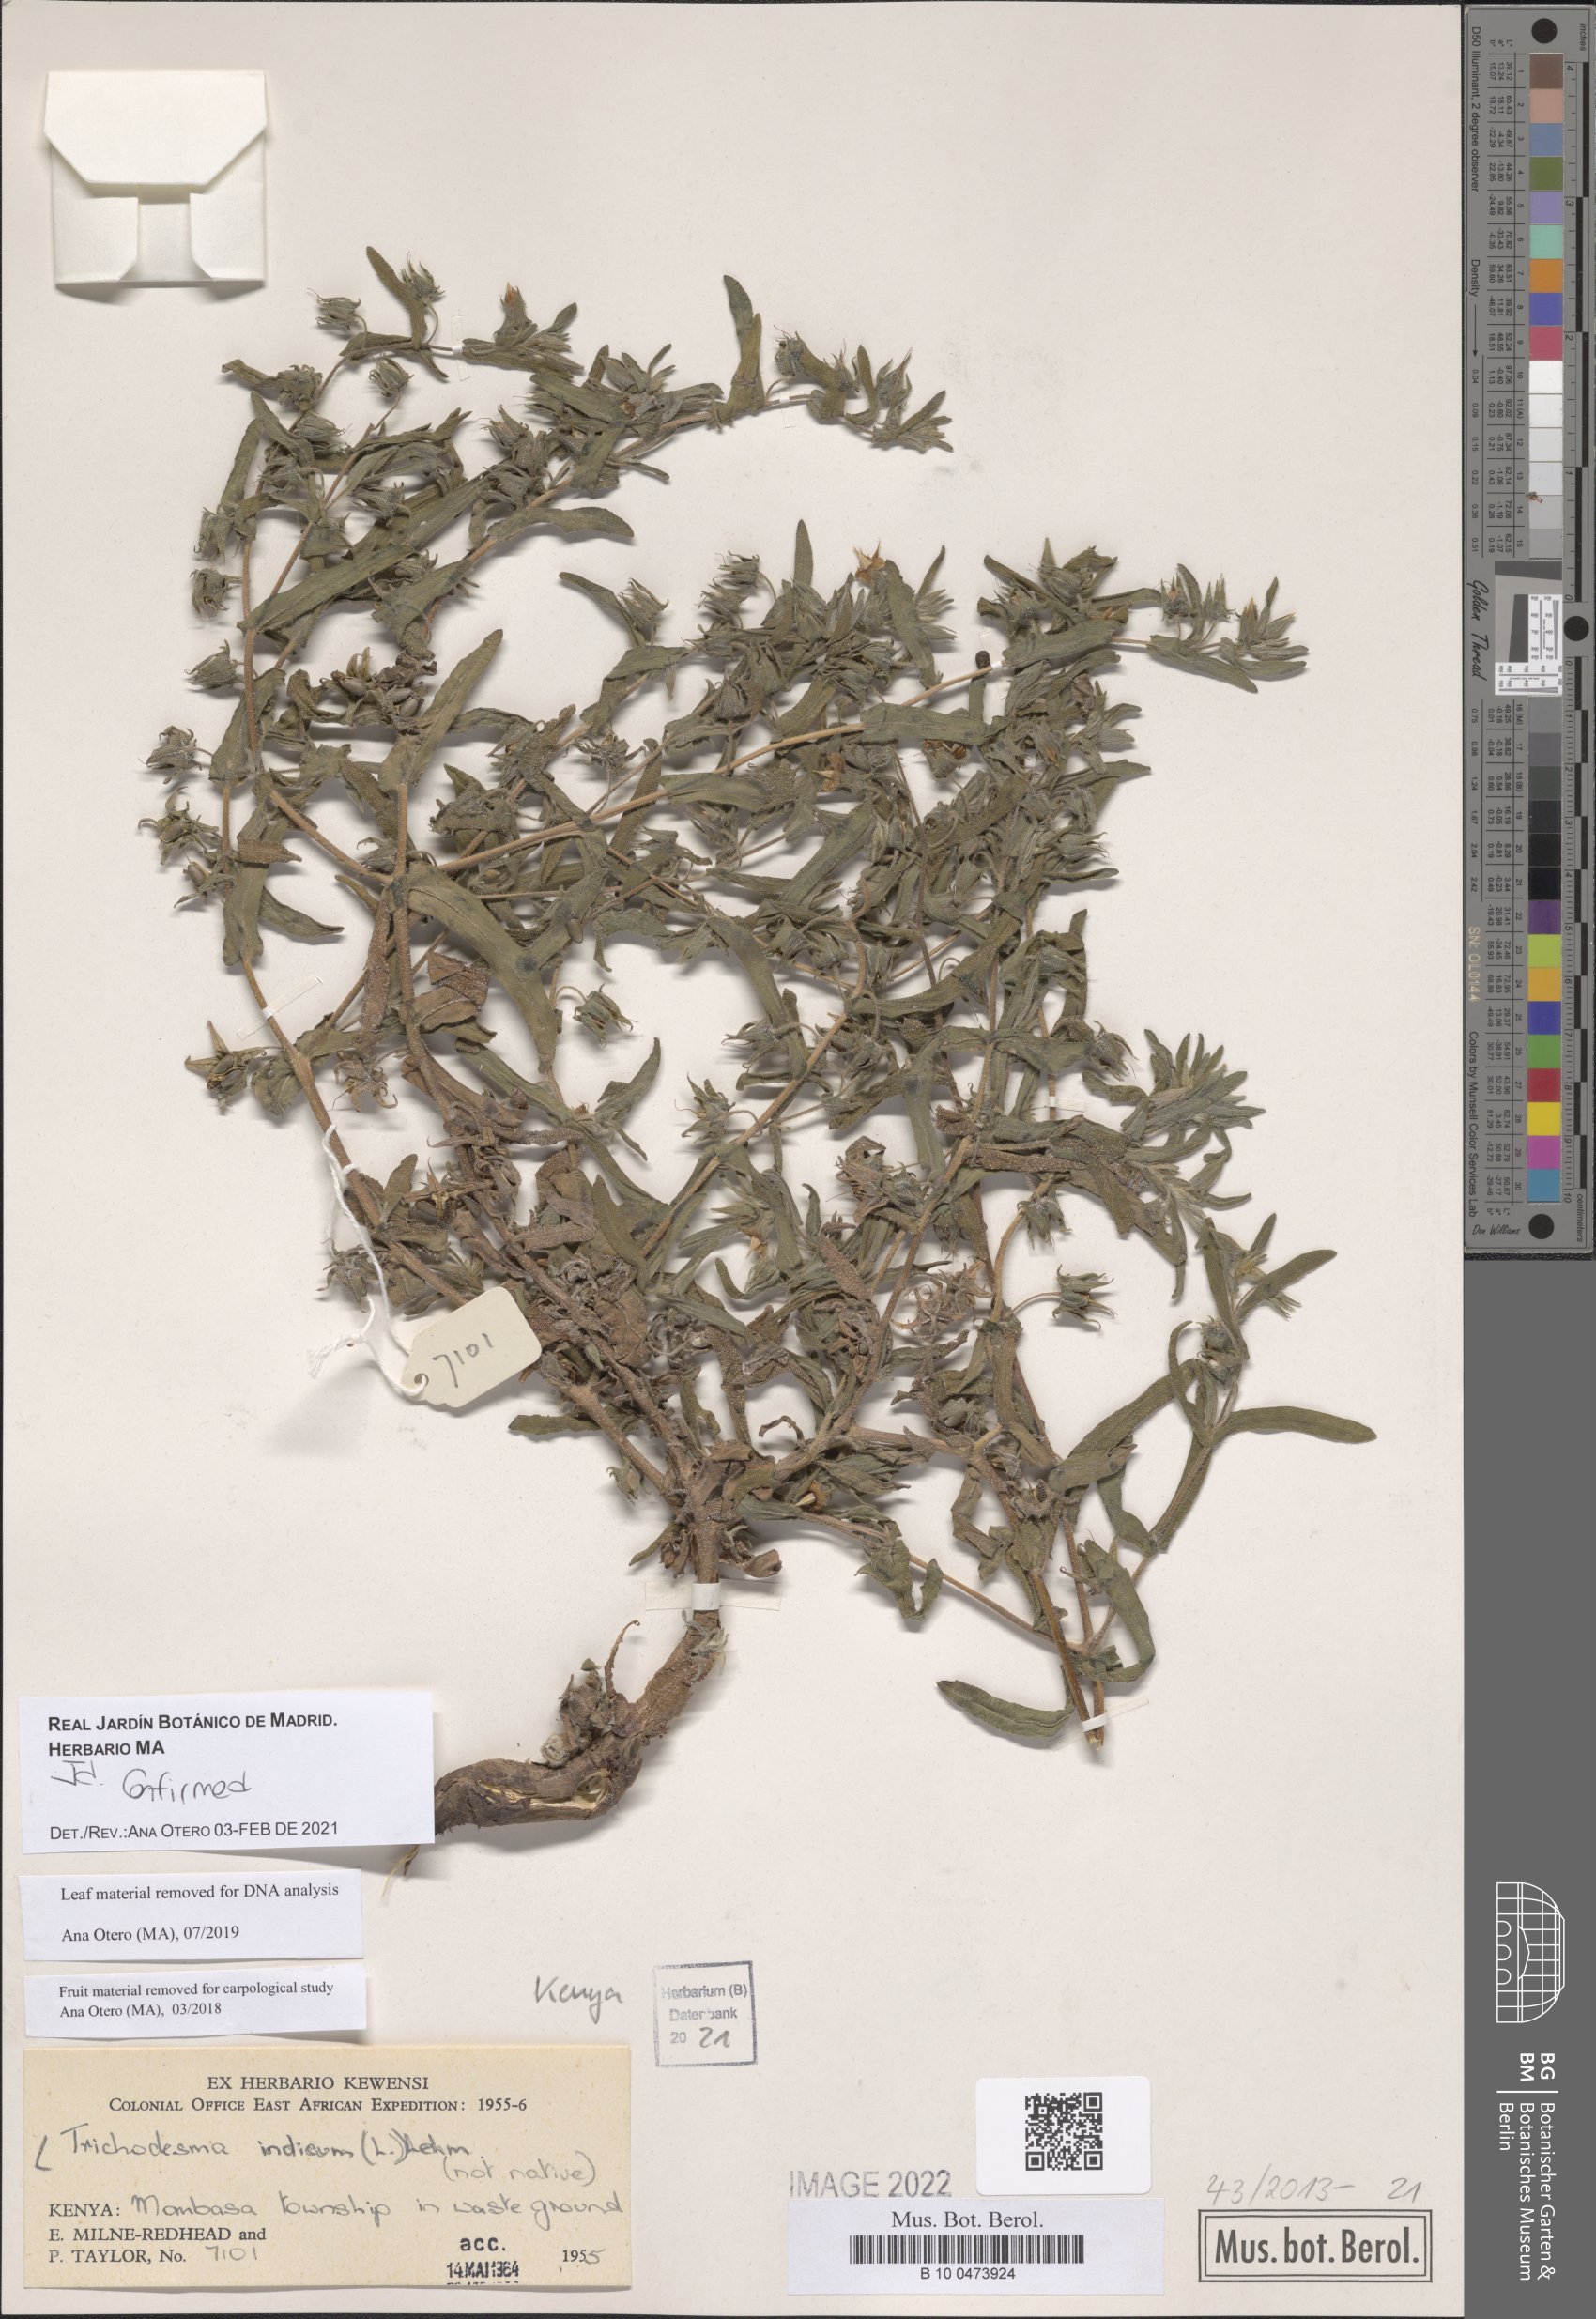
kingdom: Plantae
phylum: Tracheophyta
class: Magnoliopsida
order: Boraginales
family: Boraginaceae
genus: Trichodesma
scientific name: Trichodesma indicum
